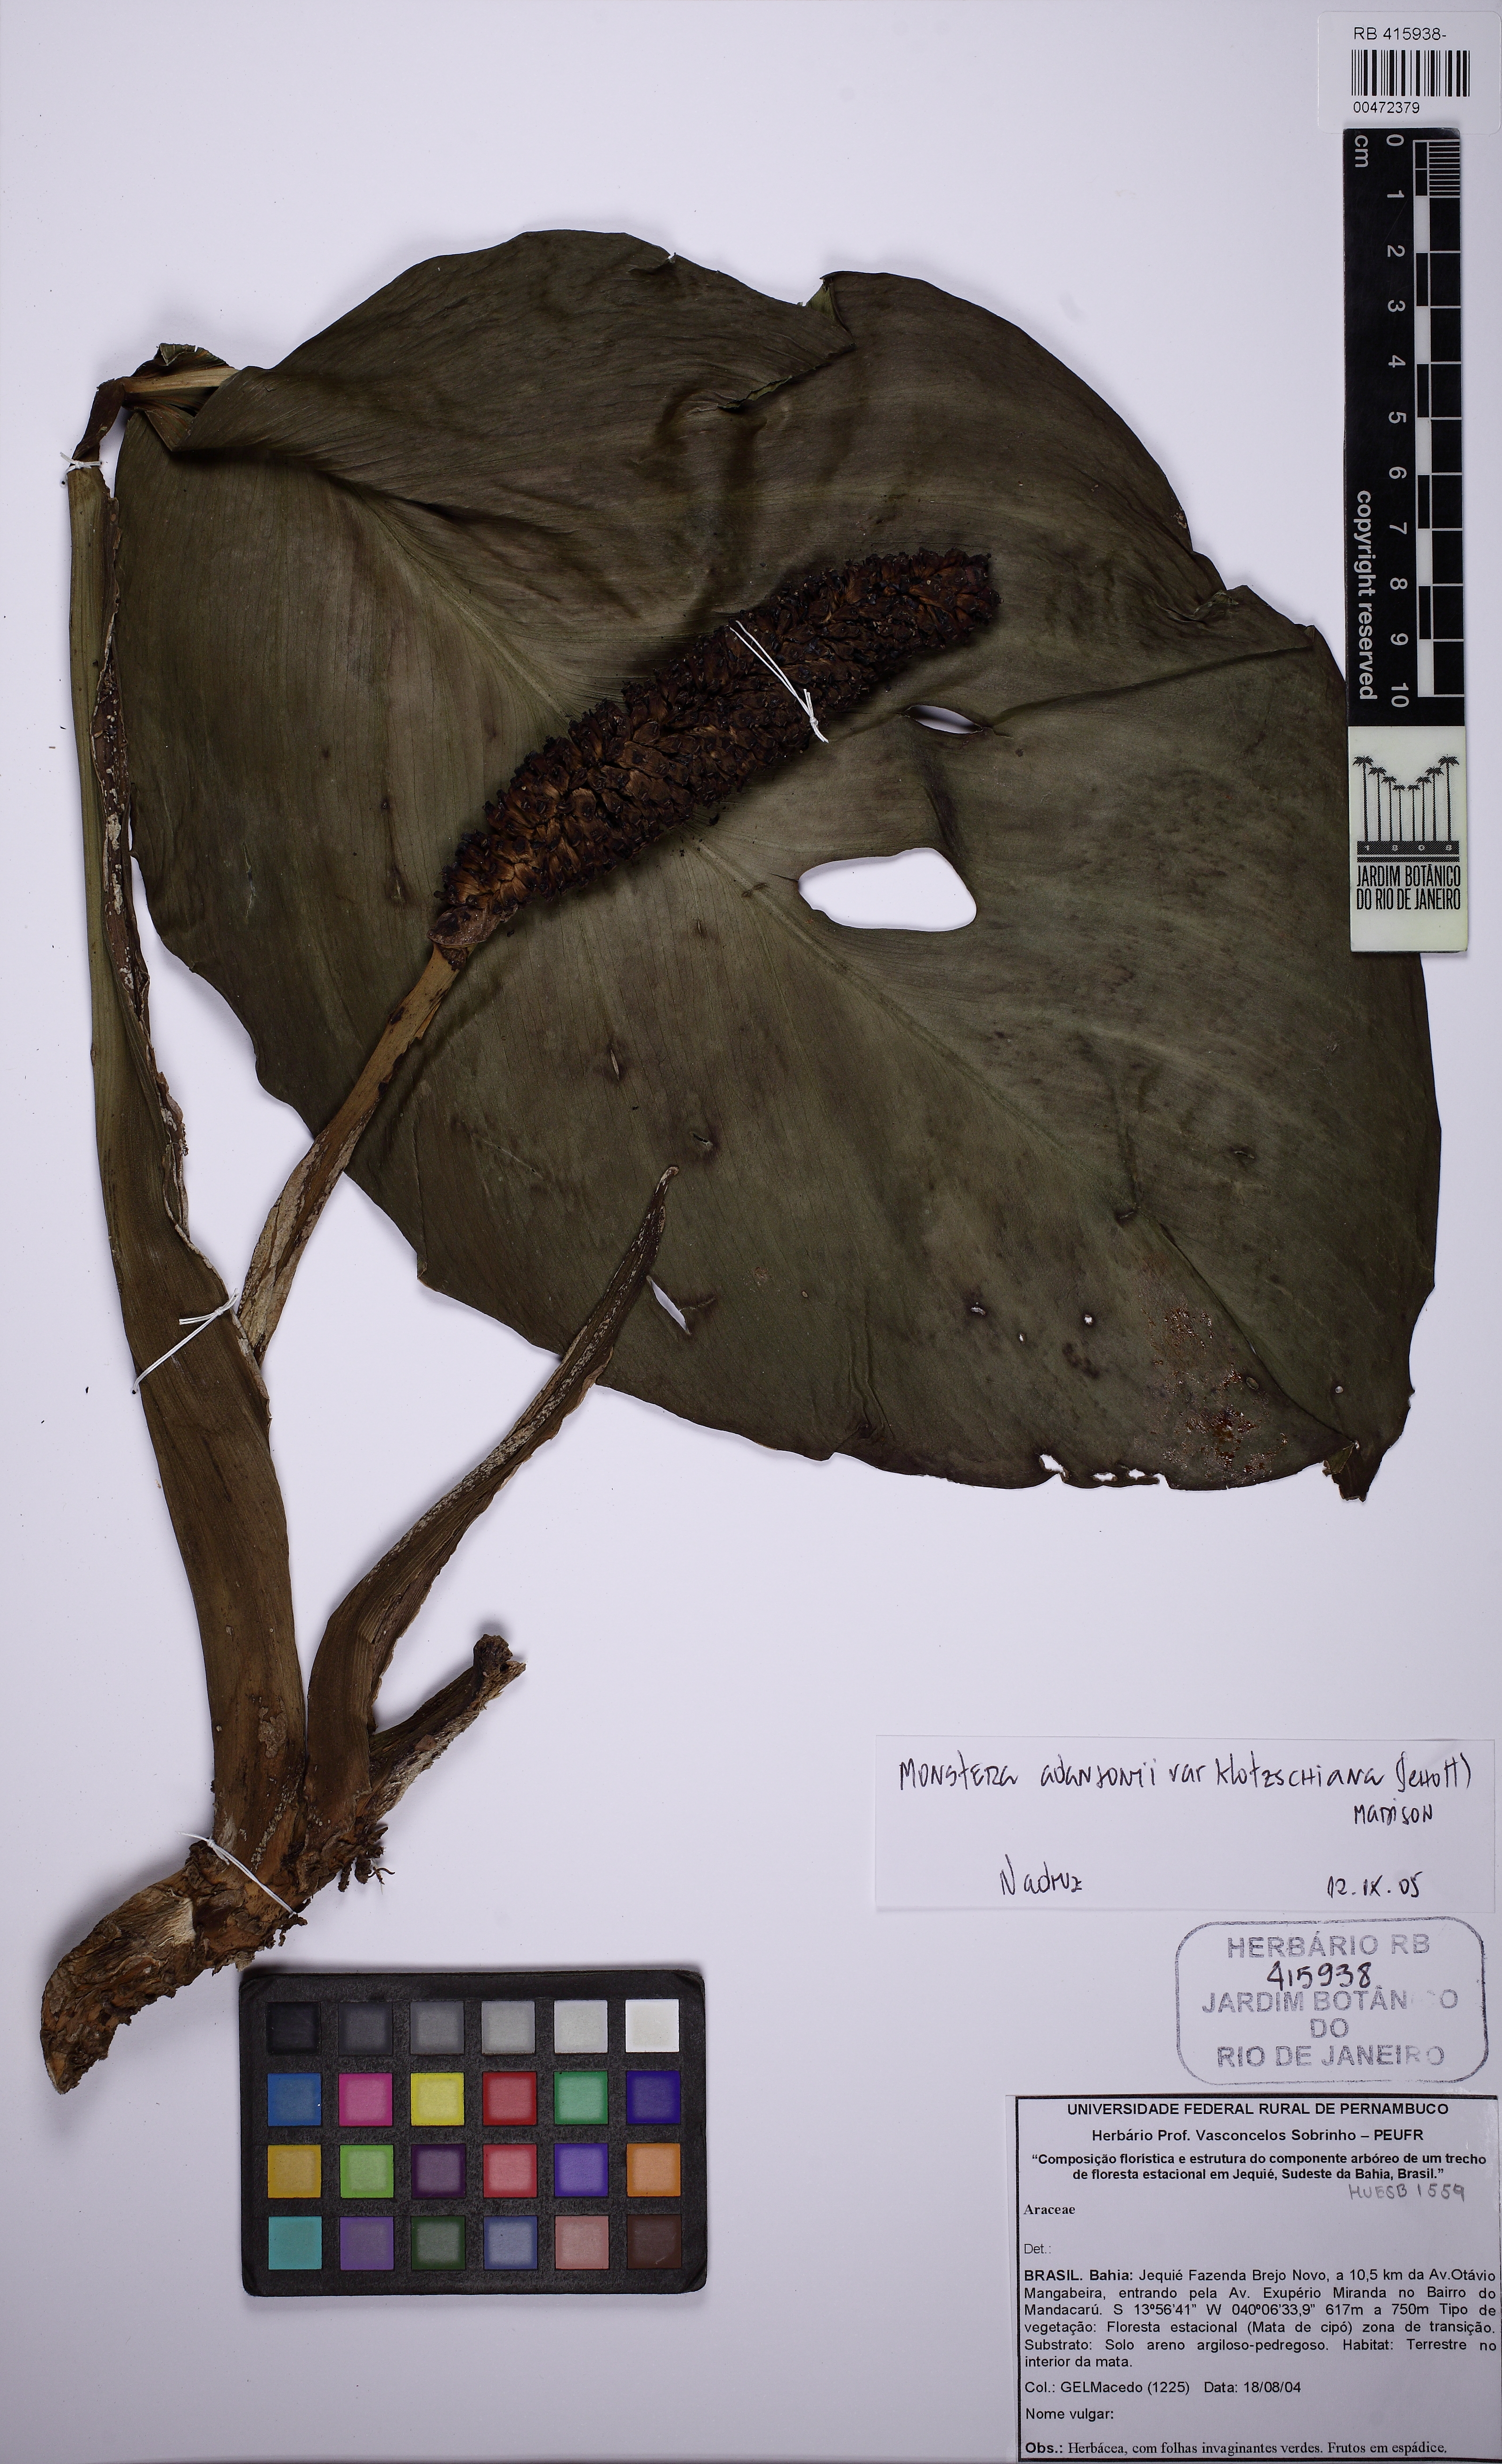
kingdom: Plantae
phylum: Tracheophyta
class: Liliopsida
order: Alismatales
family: Araceae
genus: Monstera
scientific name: Monstera adansonii
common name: Tarovine
